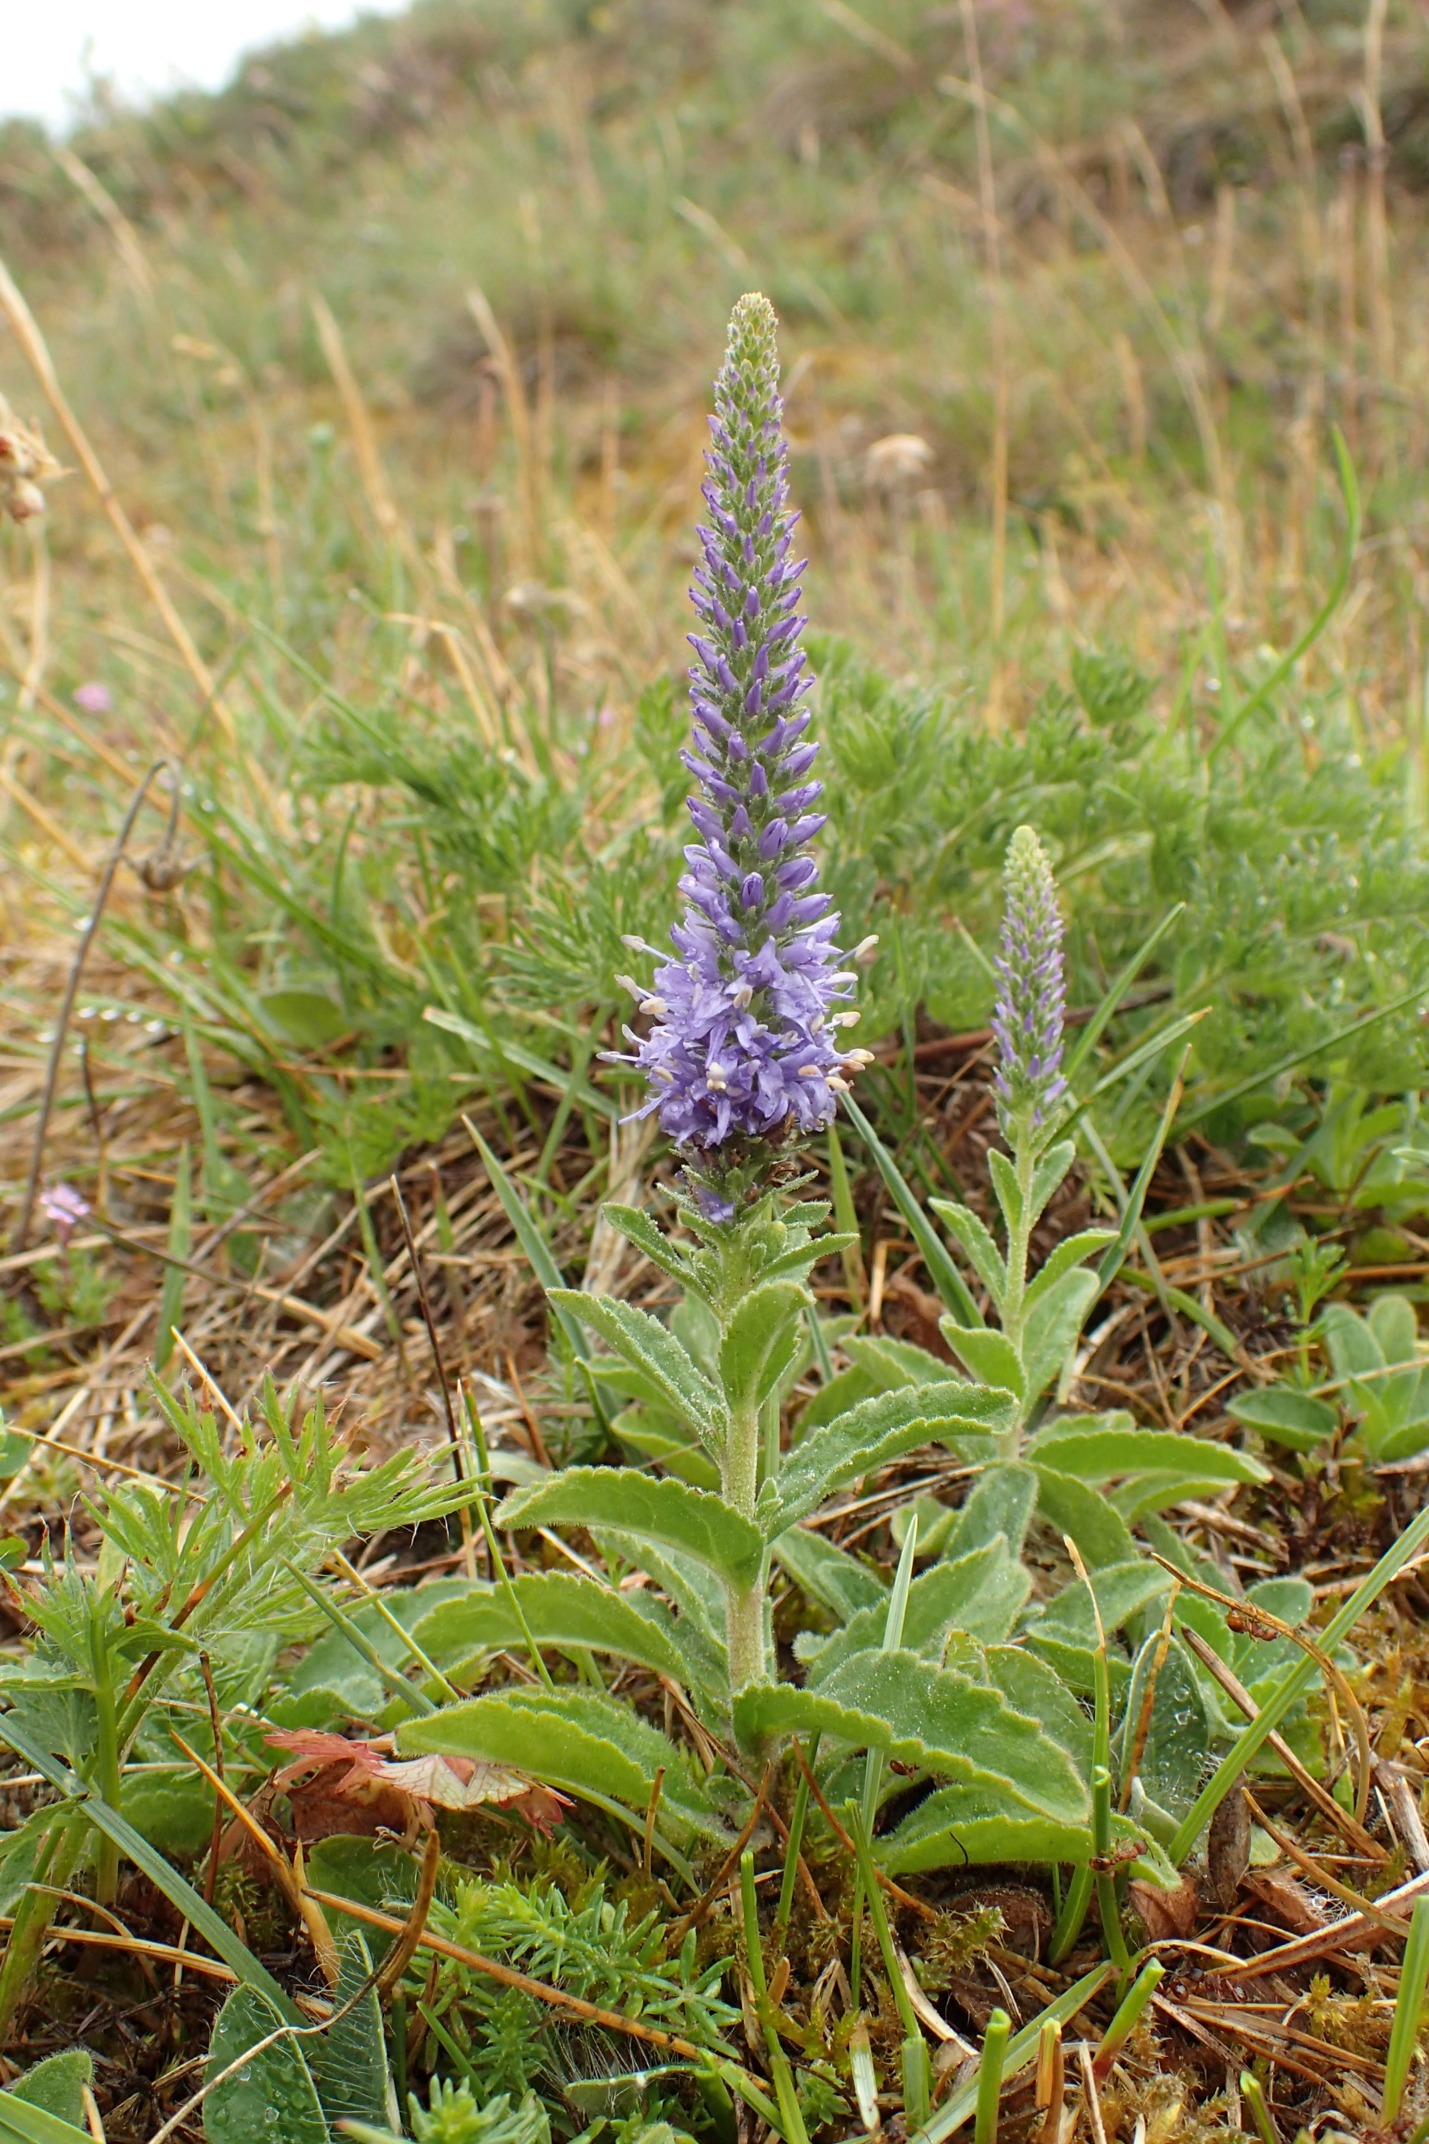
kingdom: Plantae
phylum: Tracheophyta
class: Magnoliopsida
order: Lamiales
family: Plantaginaceae
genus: Veronica
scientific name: Veronica spicata
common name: Aks-ærenpris
